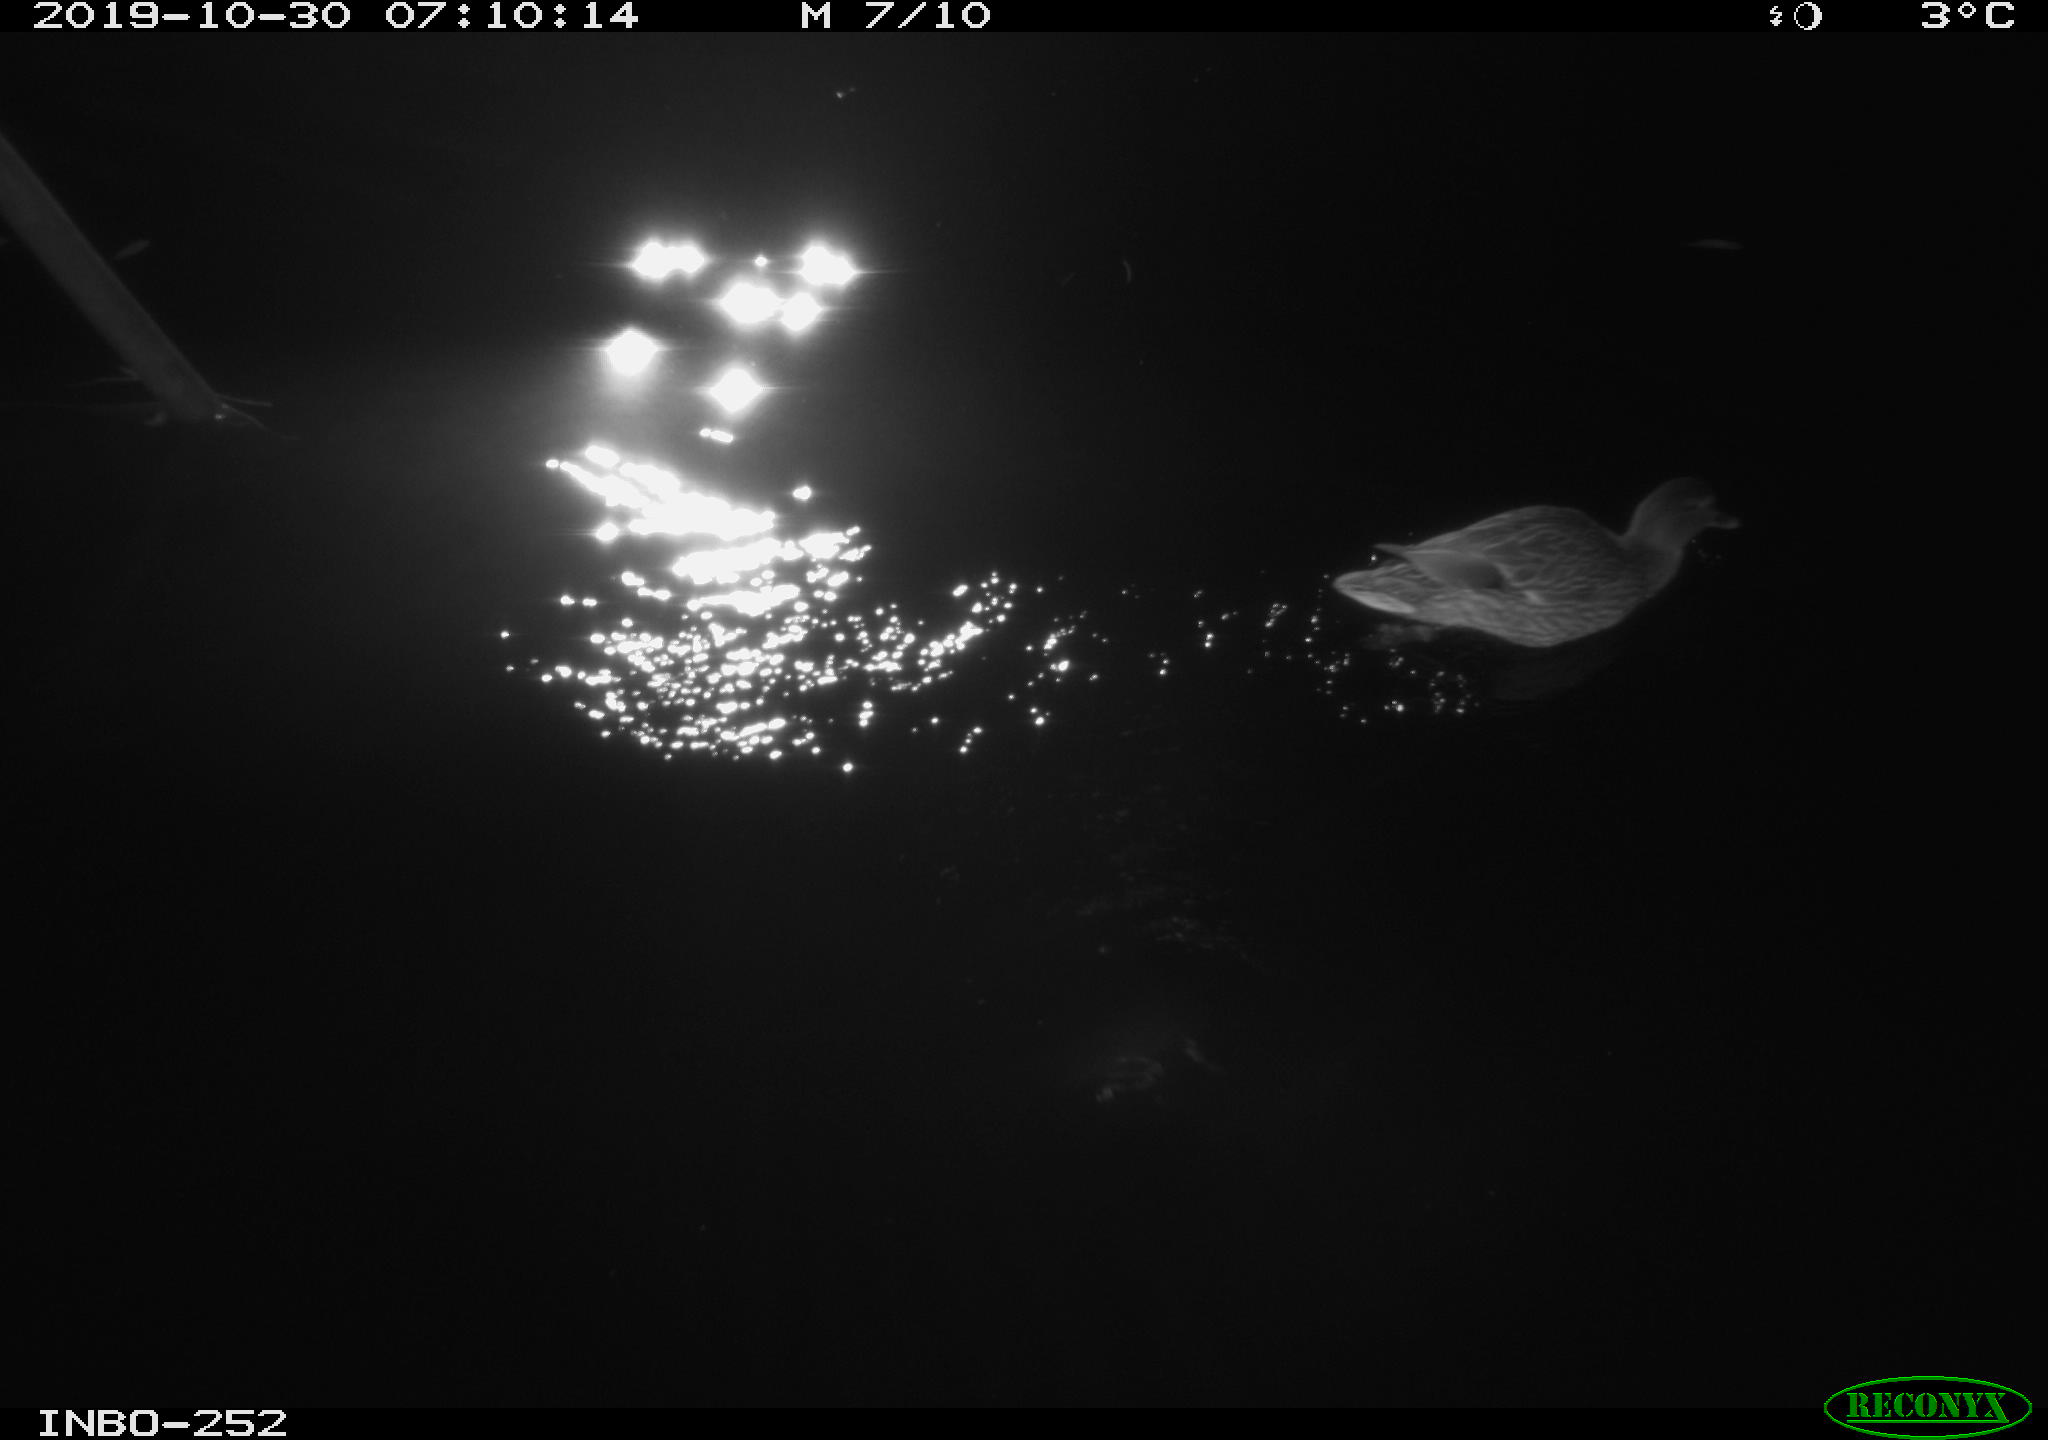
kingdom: Animalia
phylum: Chordata
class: Aves
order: Anseriformes
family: Anatidae
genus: Anas
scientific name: Anas platyrhynchos
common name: Mallard
